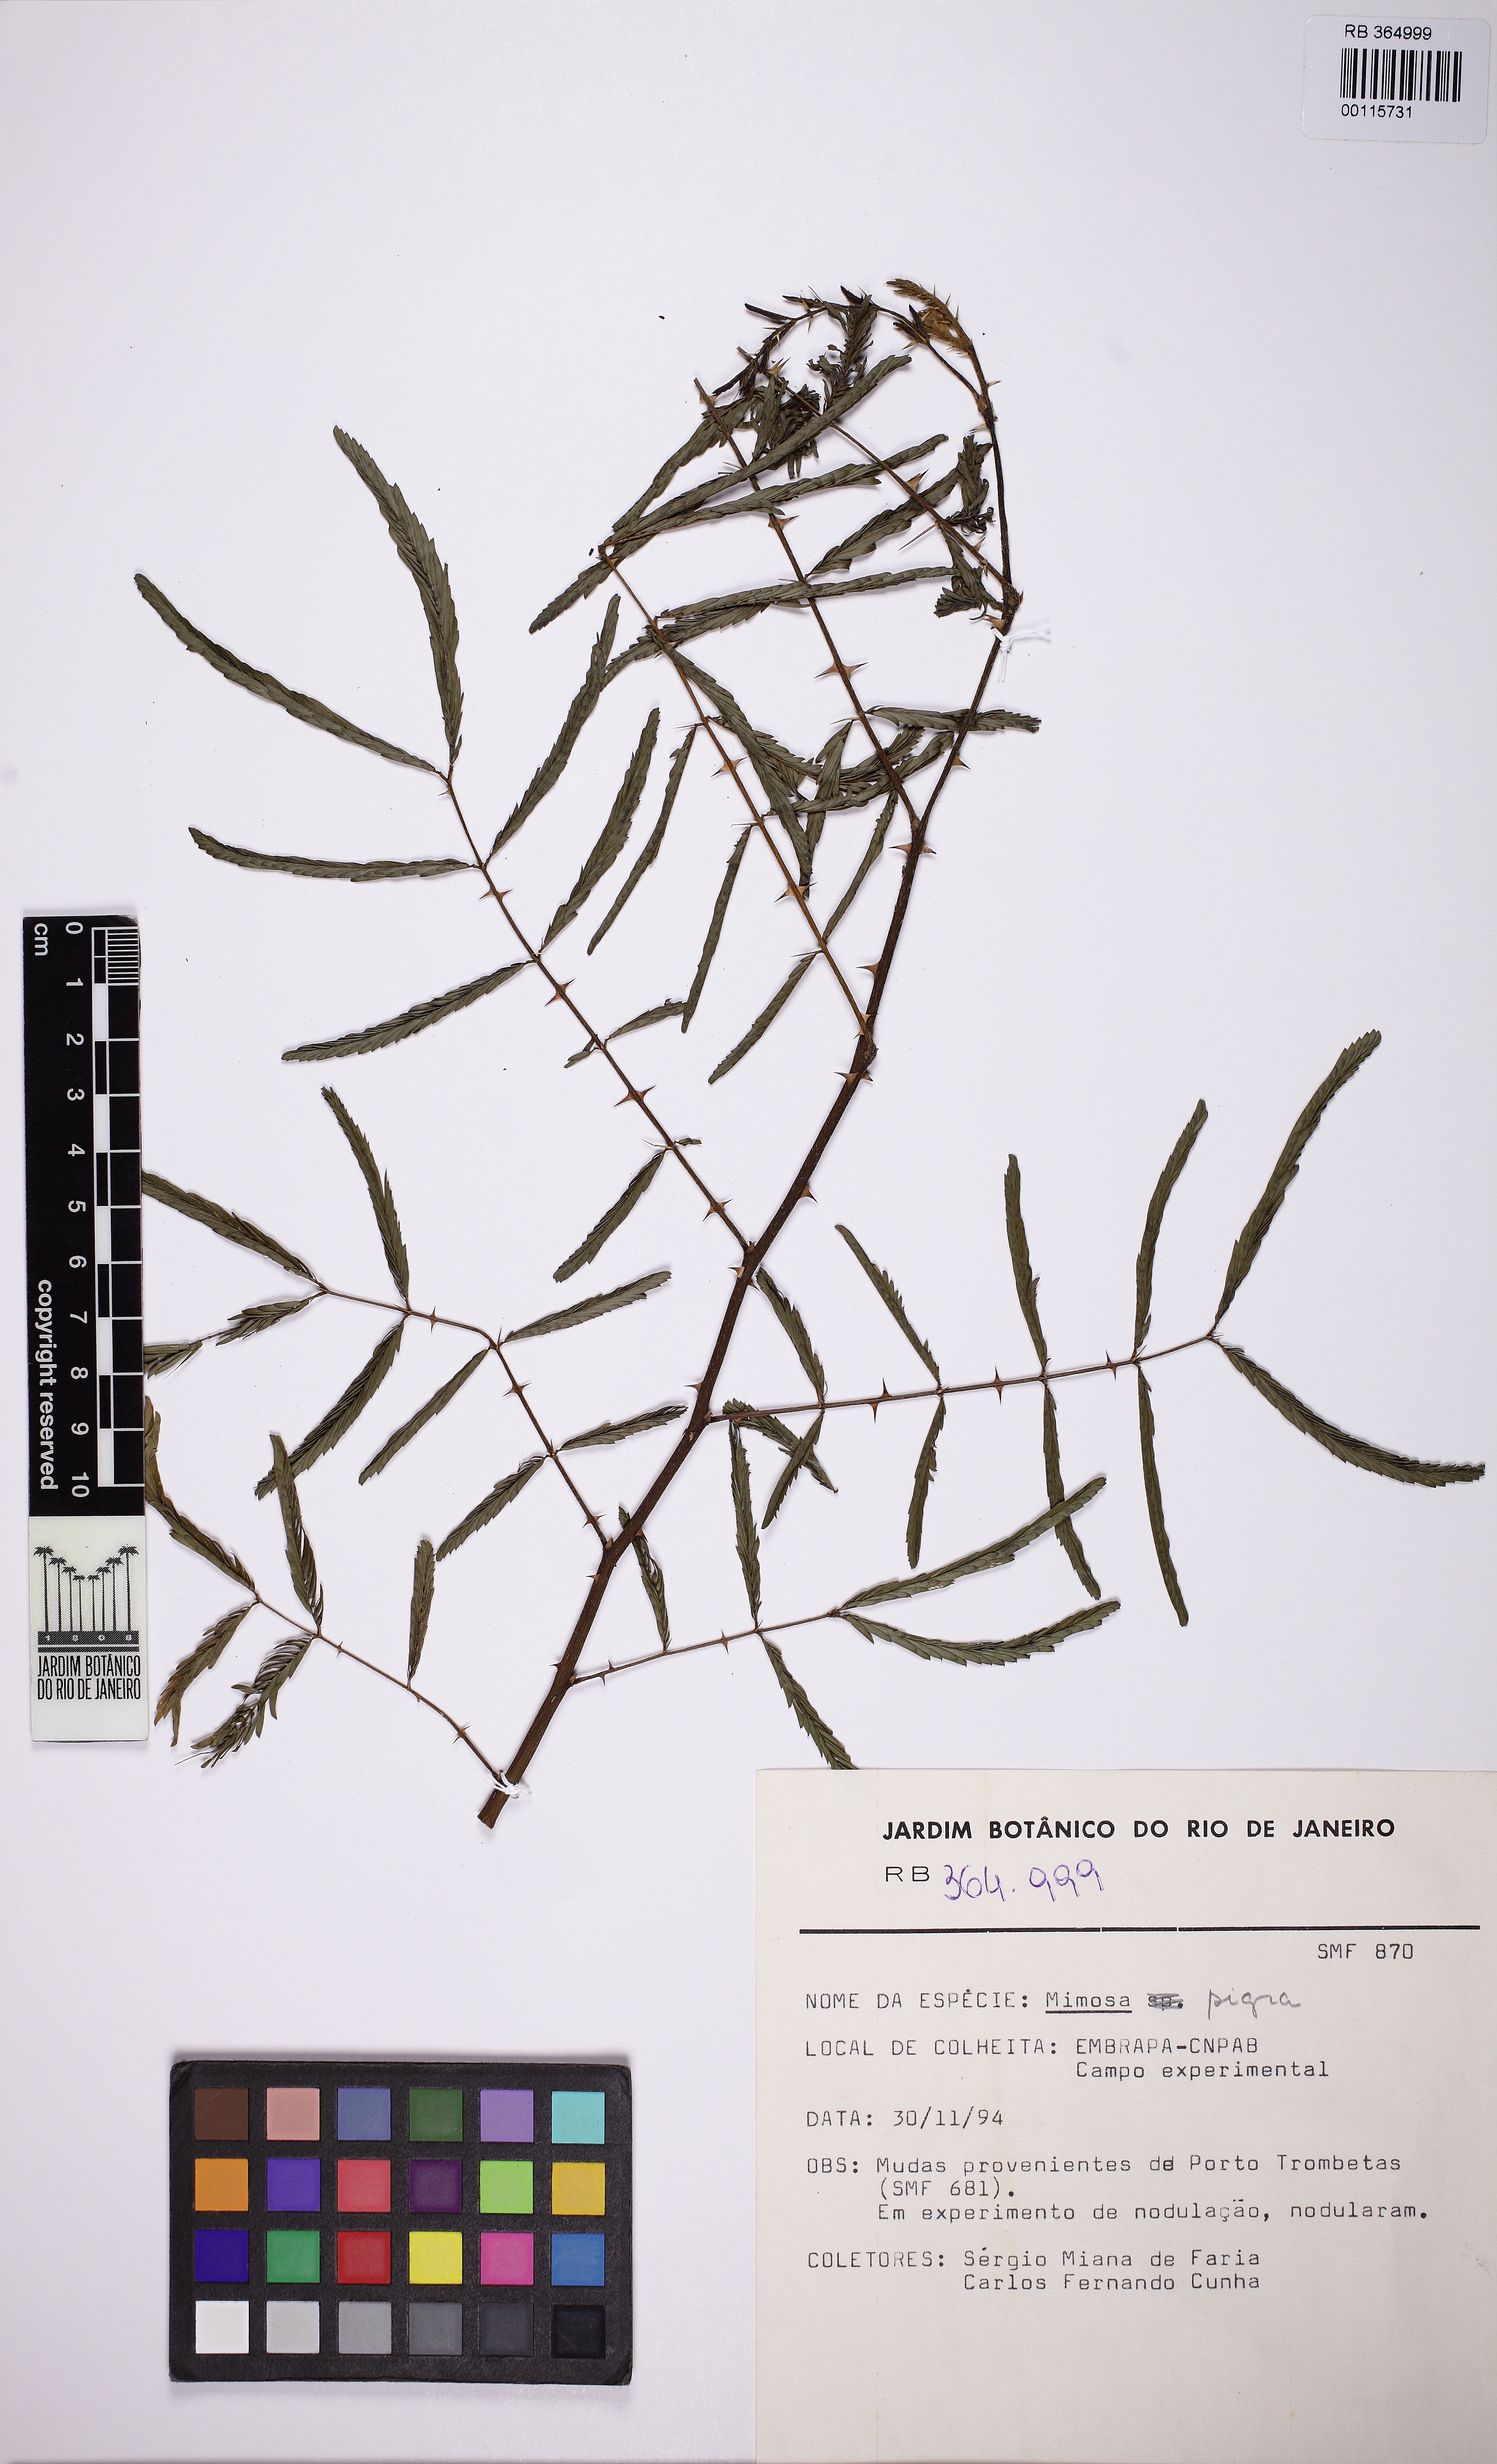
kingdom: Plantae
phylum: Tracheophyta
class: Magnoliopsida
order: Fabales
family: Fabaceae
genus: Mimosa
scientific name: Mimosa pigra
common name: Black mimosa
